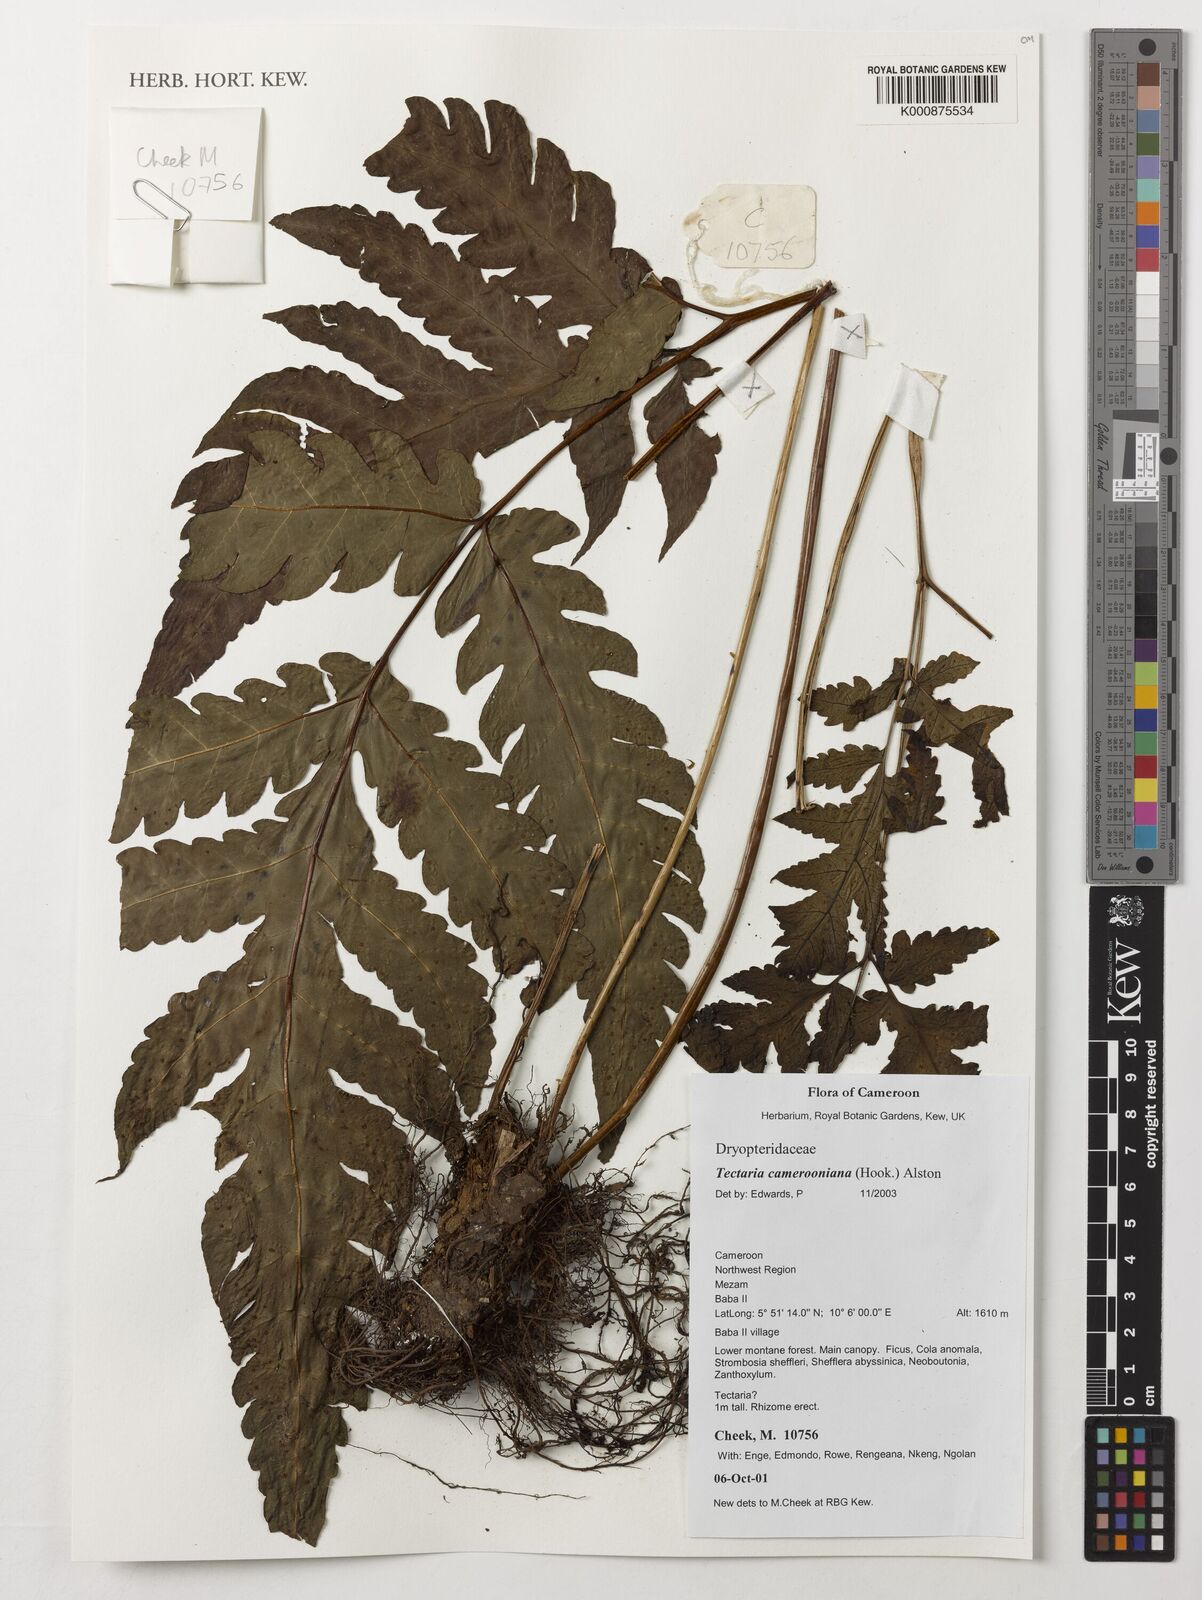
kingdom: Plantae
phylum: Tracheophyta
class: Polypodiopsida
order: Polypodiales
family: Tectariaceae
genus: Tectaria
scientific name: Tectaria camerooniana
